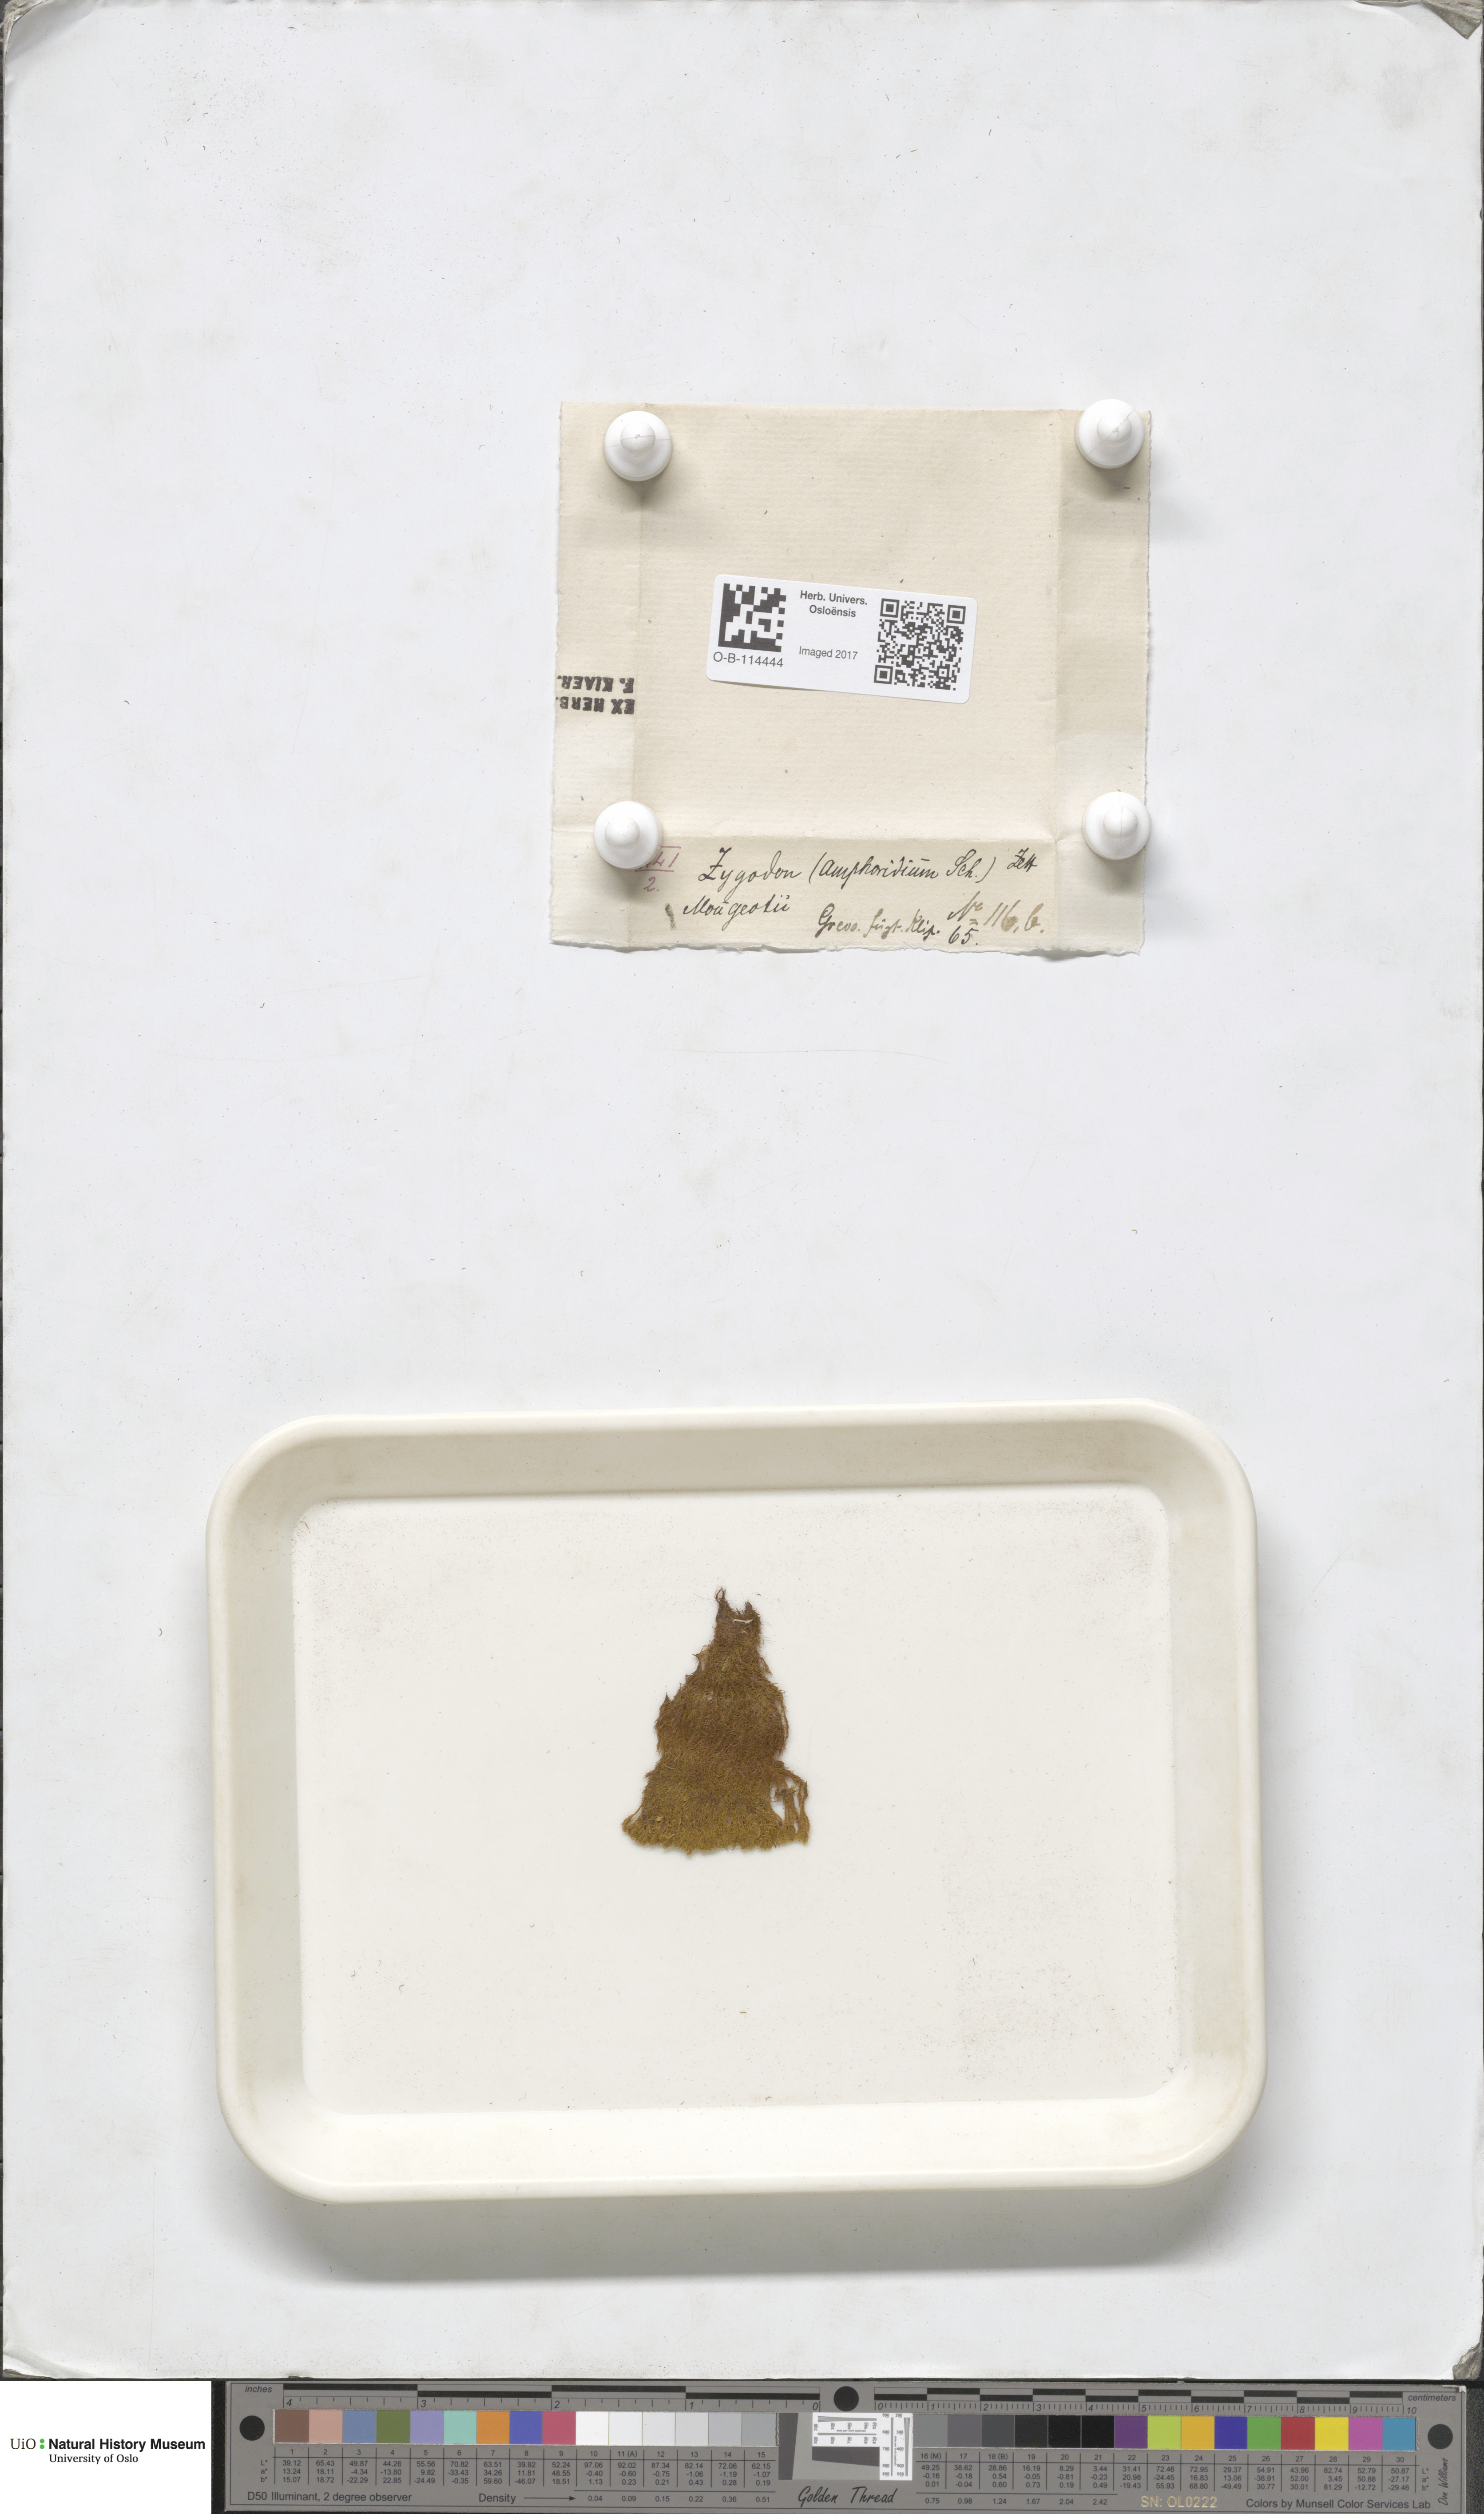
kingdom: Plantae
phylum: Bryophyta
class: Bryopsida
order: Dicranales
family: Amphidiaceae
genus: Amphidium
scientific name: Amphidium mougeotii
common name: Mougeot's yoke moss
